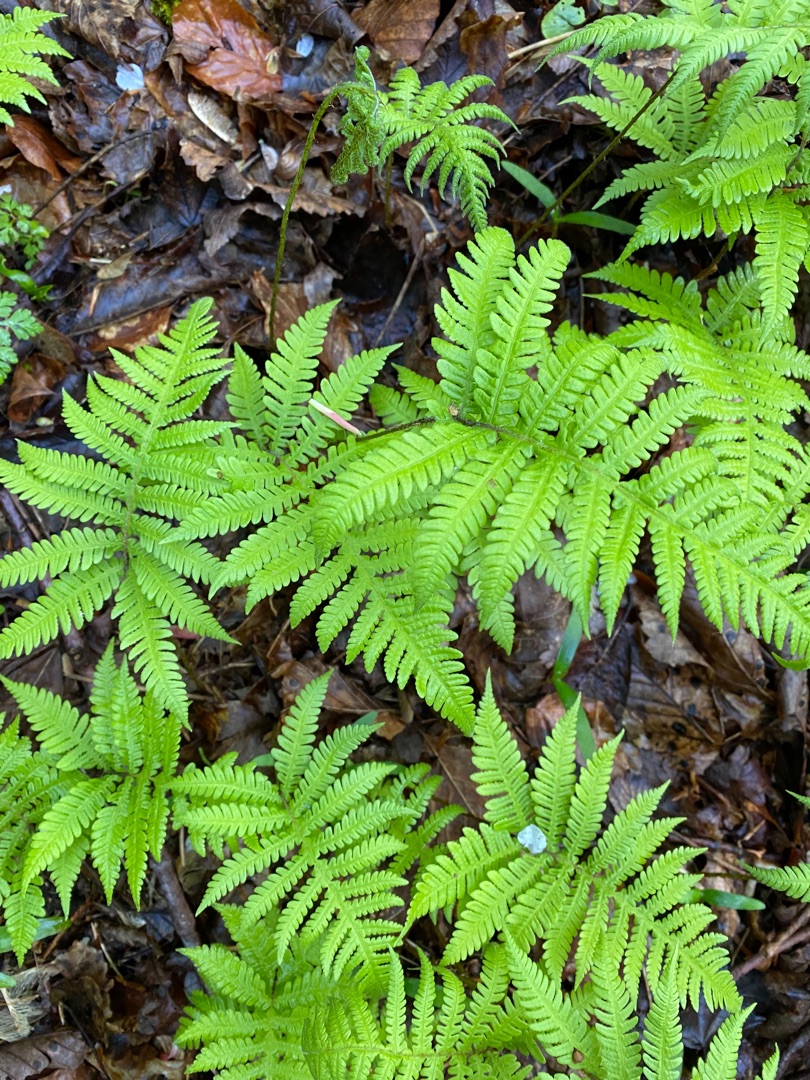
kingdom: Plantae
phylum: Tracheophyta
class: Polypodiopsida
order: Polypodiales
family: Thelypteridaceae
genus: Phegopteris
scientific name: Phegopteris connectilis
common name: Dunet egebregne
